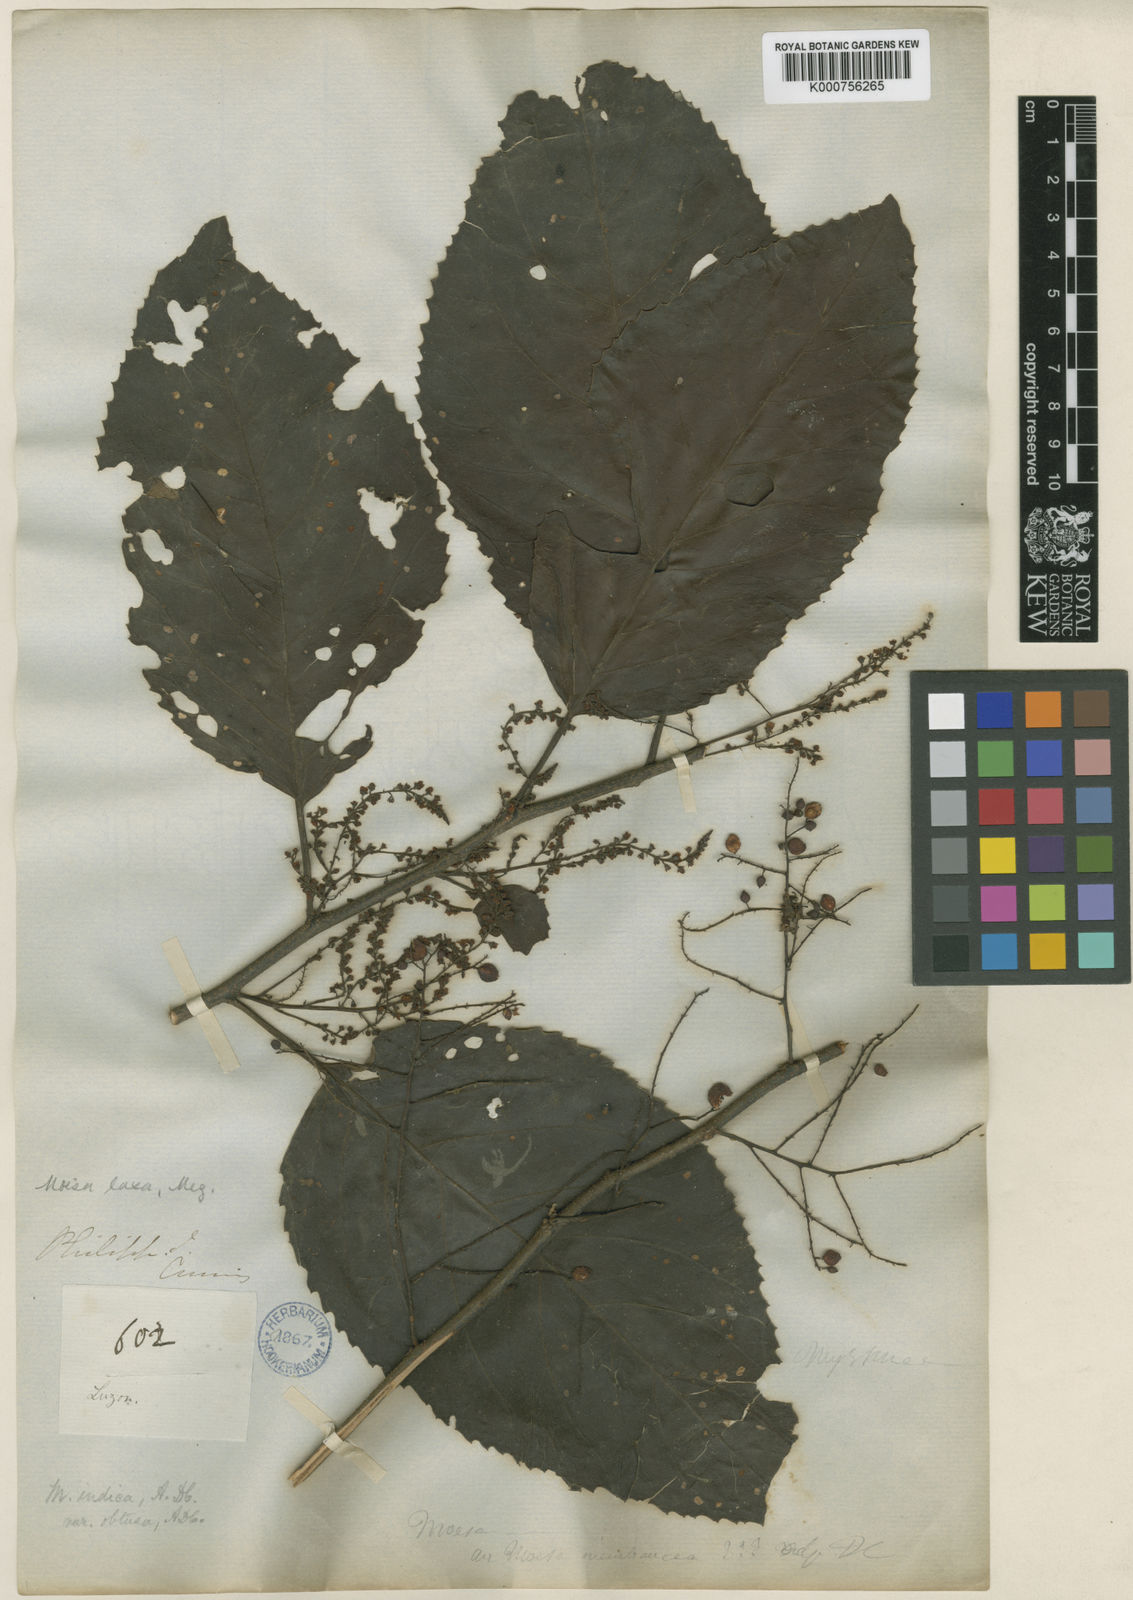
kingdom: Plantae
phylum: Tracheophyta
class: Magnoliopsida
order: Ericales
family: Primulaceae
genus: Maesa
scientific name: Maesa indica
